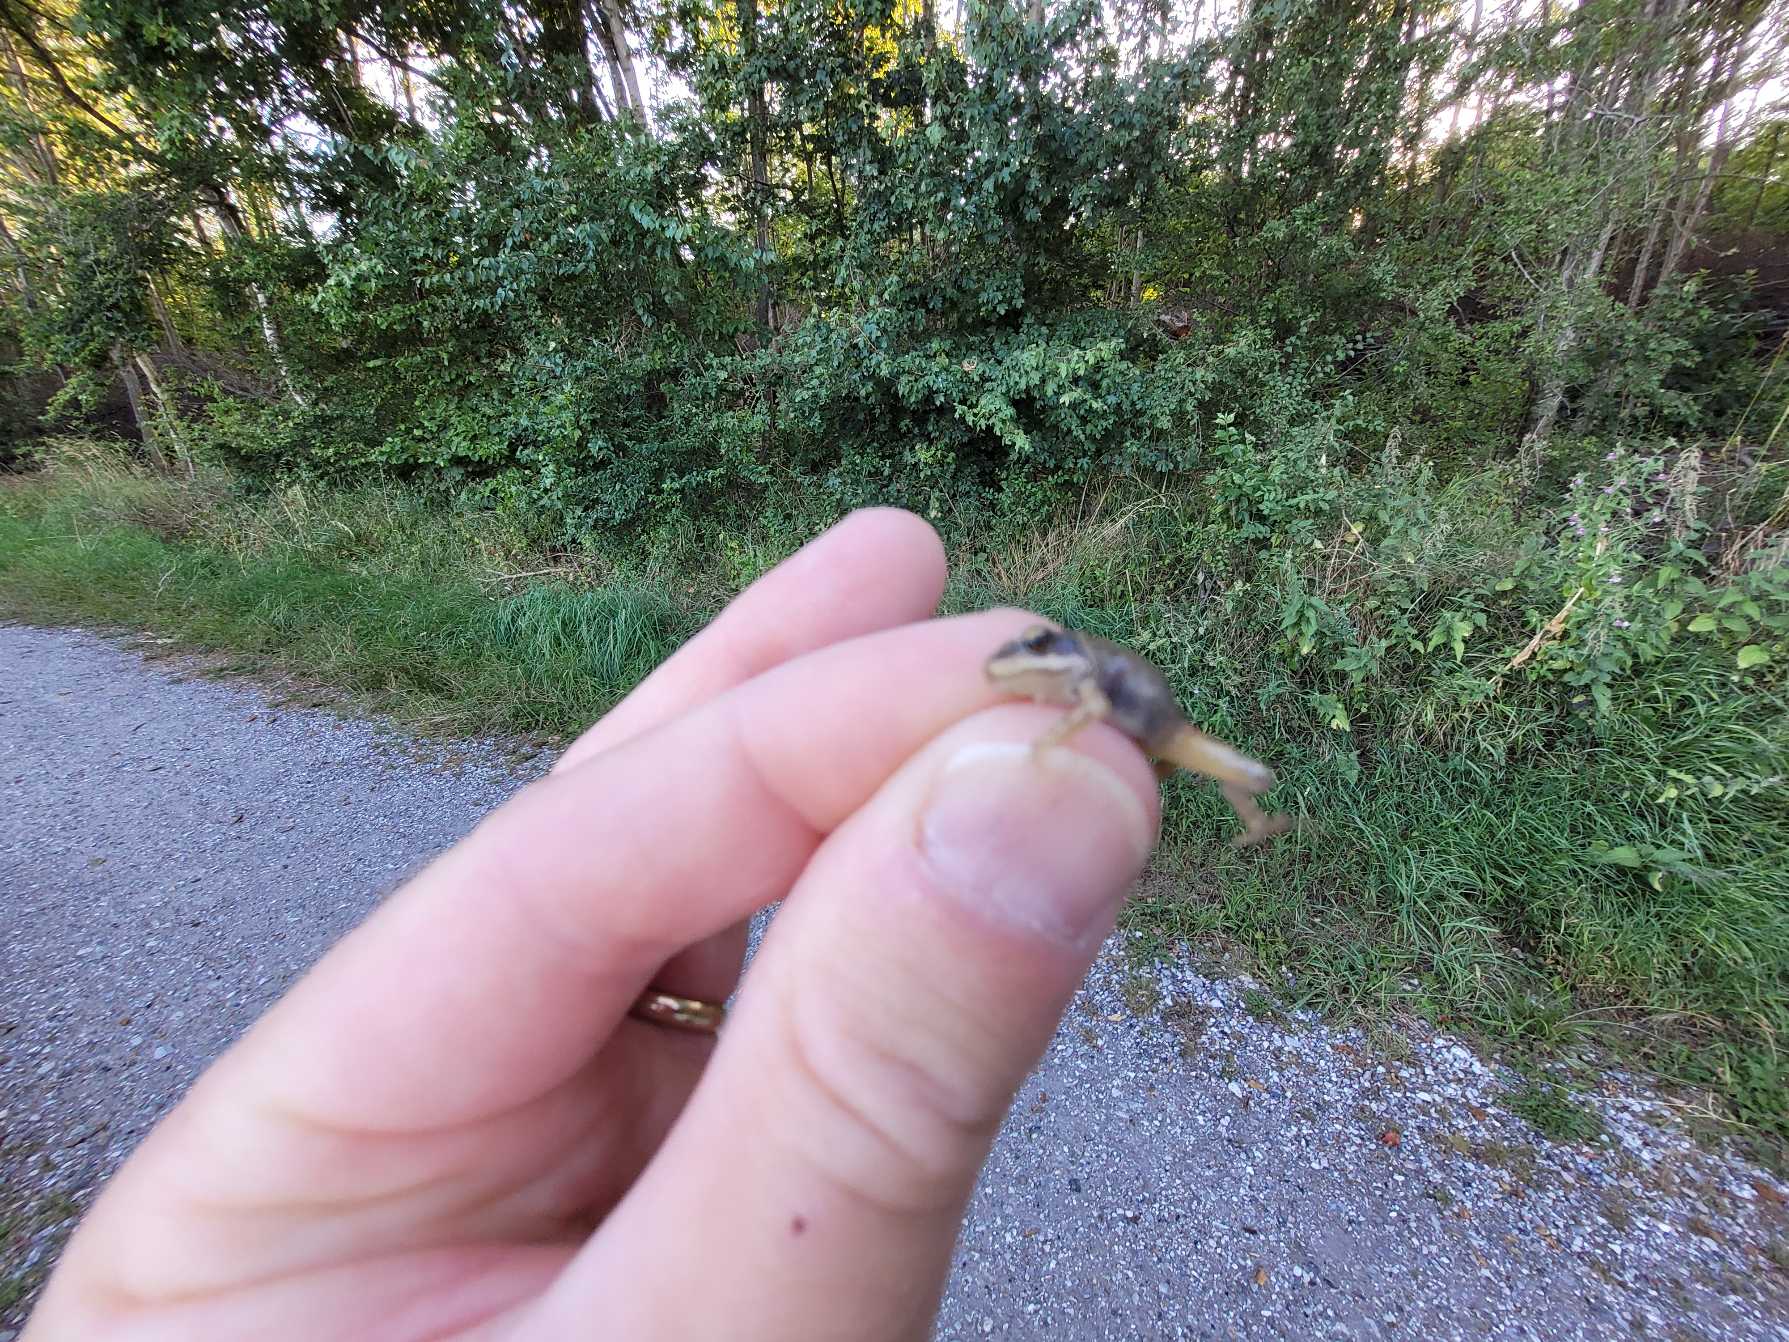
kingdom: Animalia
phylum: Chordata
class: Amphibia
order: Anura
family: Ranidae
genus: Rana
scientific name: Rana temporaria
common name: Butsnudet frø
